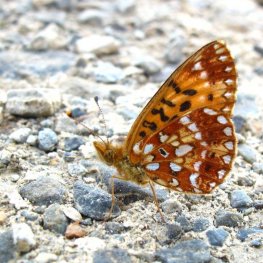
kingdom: Animalia
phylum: Arthropoda
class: Insecta
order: Lepidoptera
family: Nymphalidae
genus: Boloria
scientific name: Boloria selene
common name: Silver-bordered Fritillary
